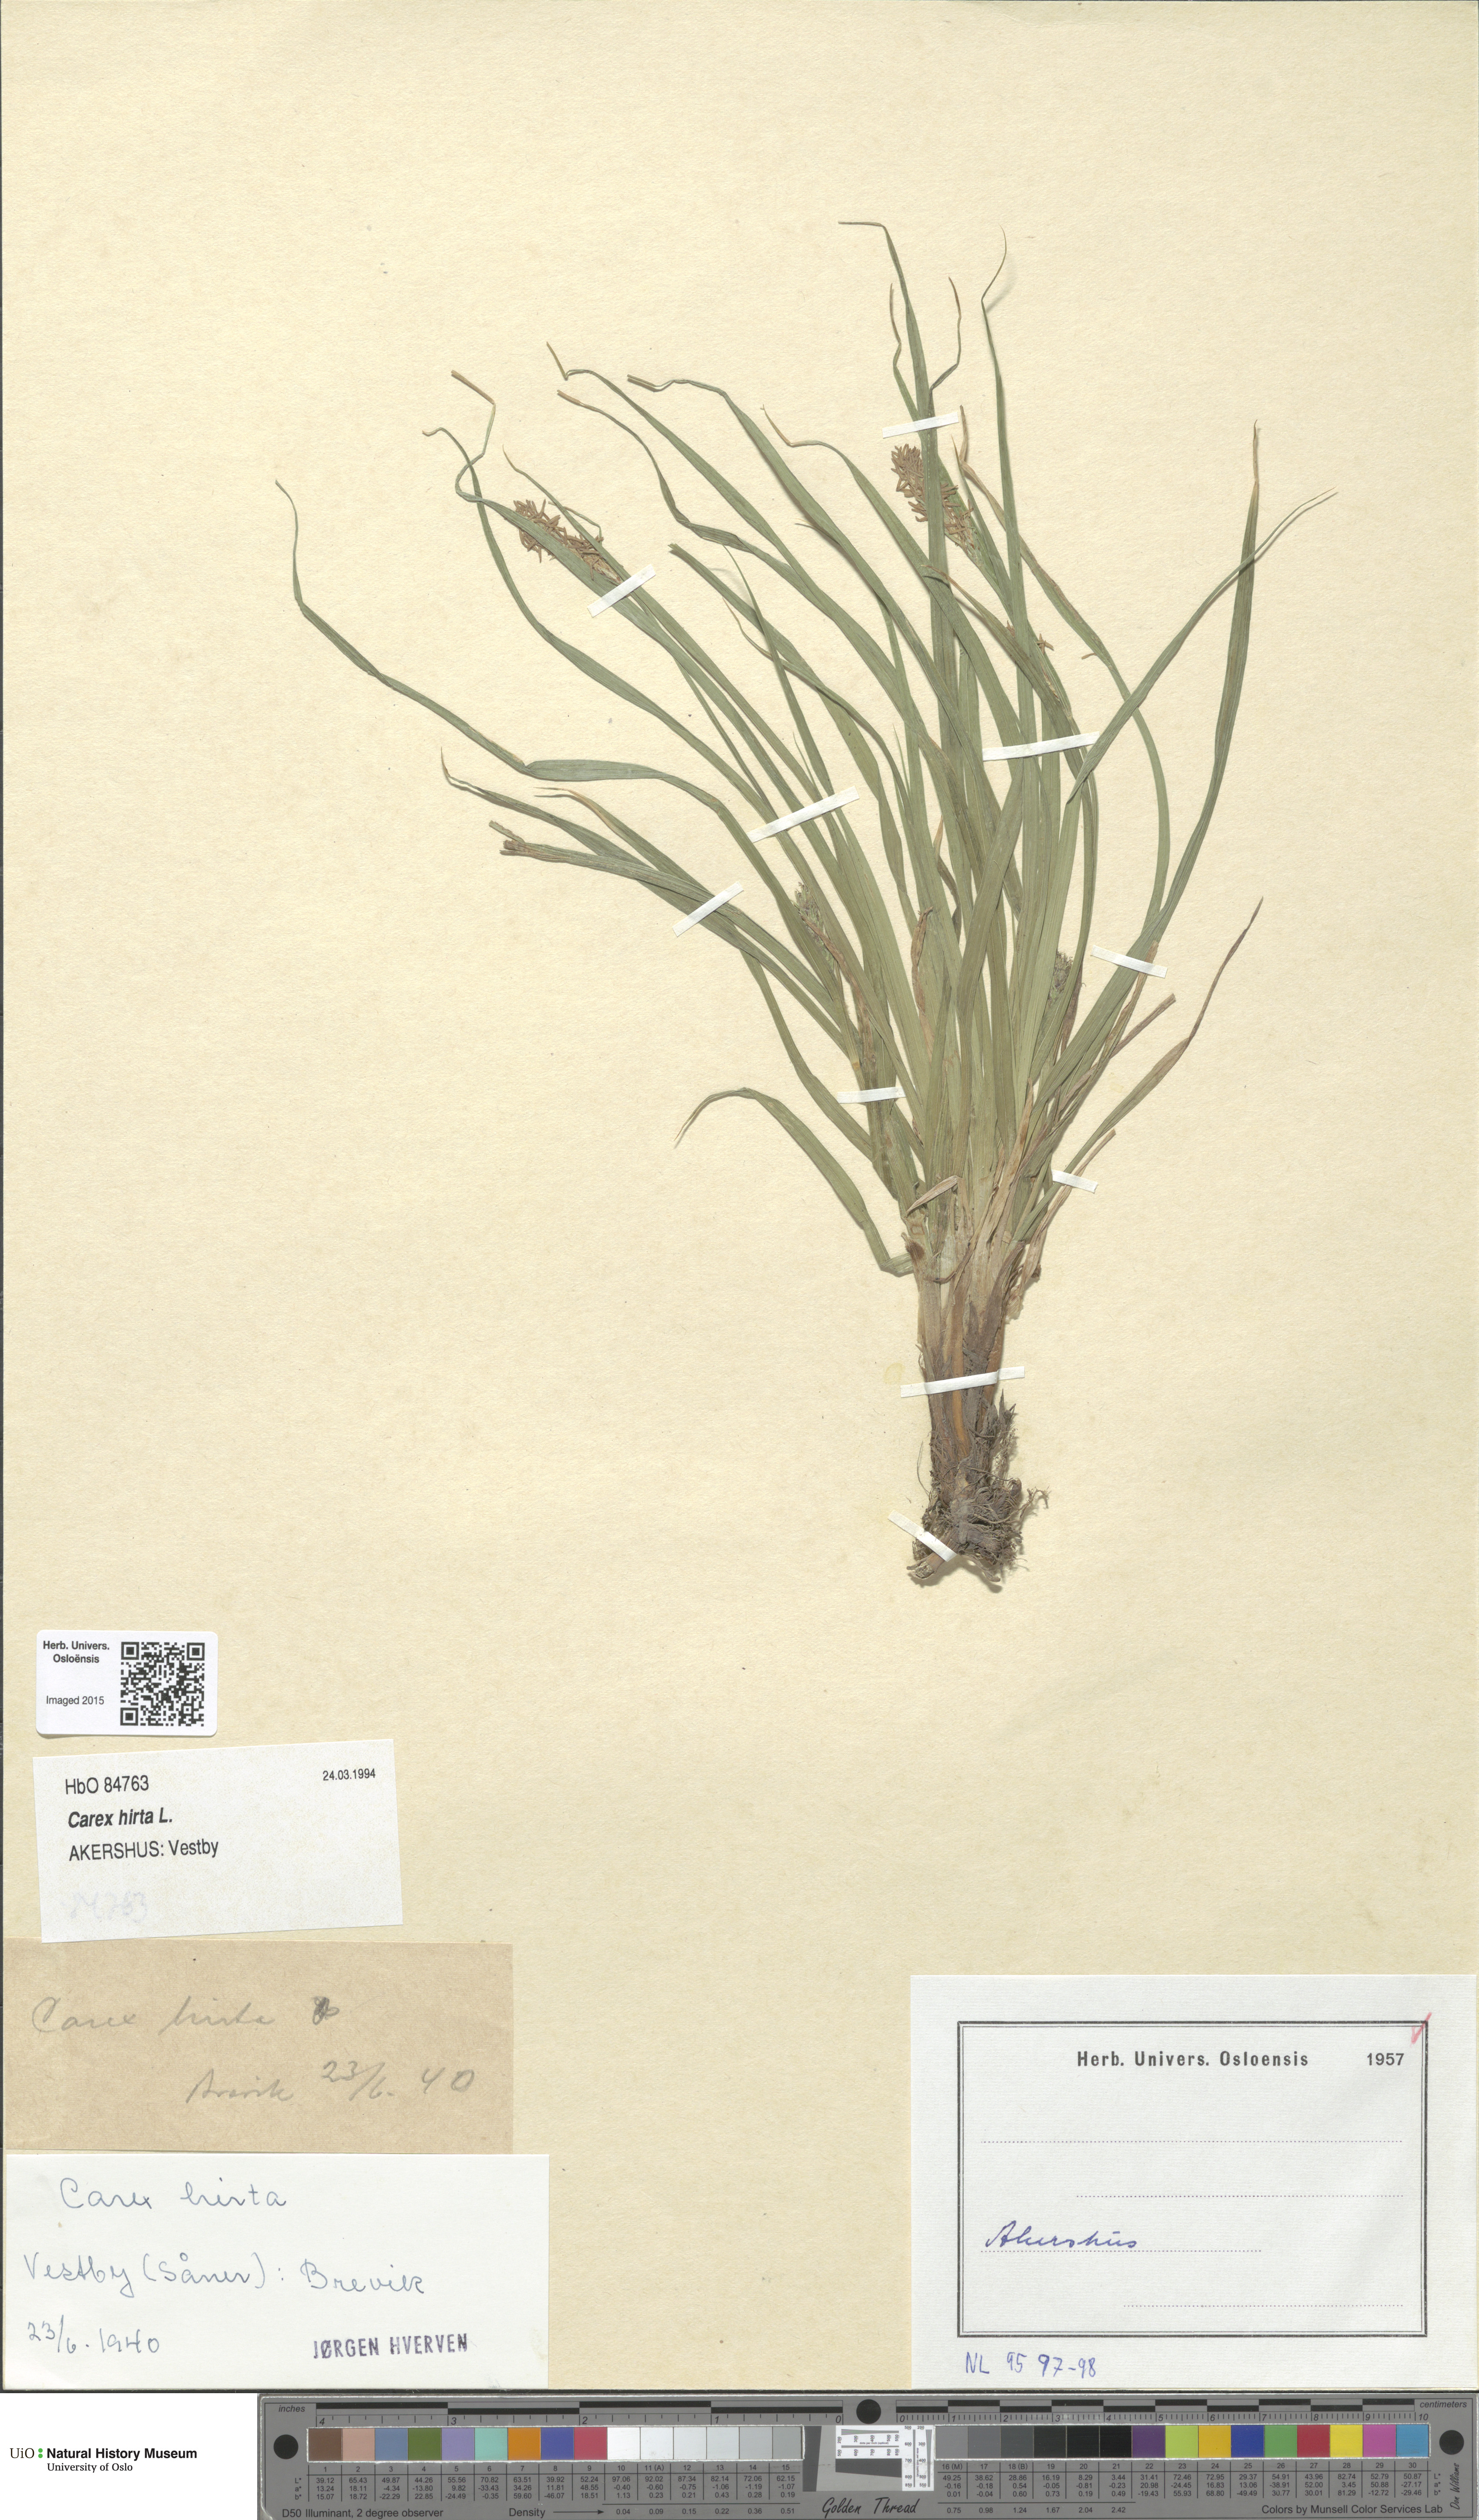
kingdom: Plantae
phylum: Tracheophyta
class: Liliopsida
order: Poales
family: Cyperaceae
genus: Carex
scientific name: Carex hirta
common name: Hairy sedge
